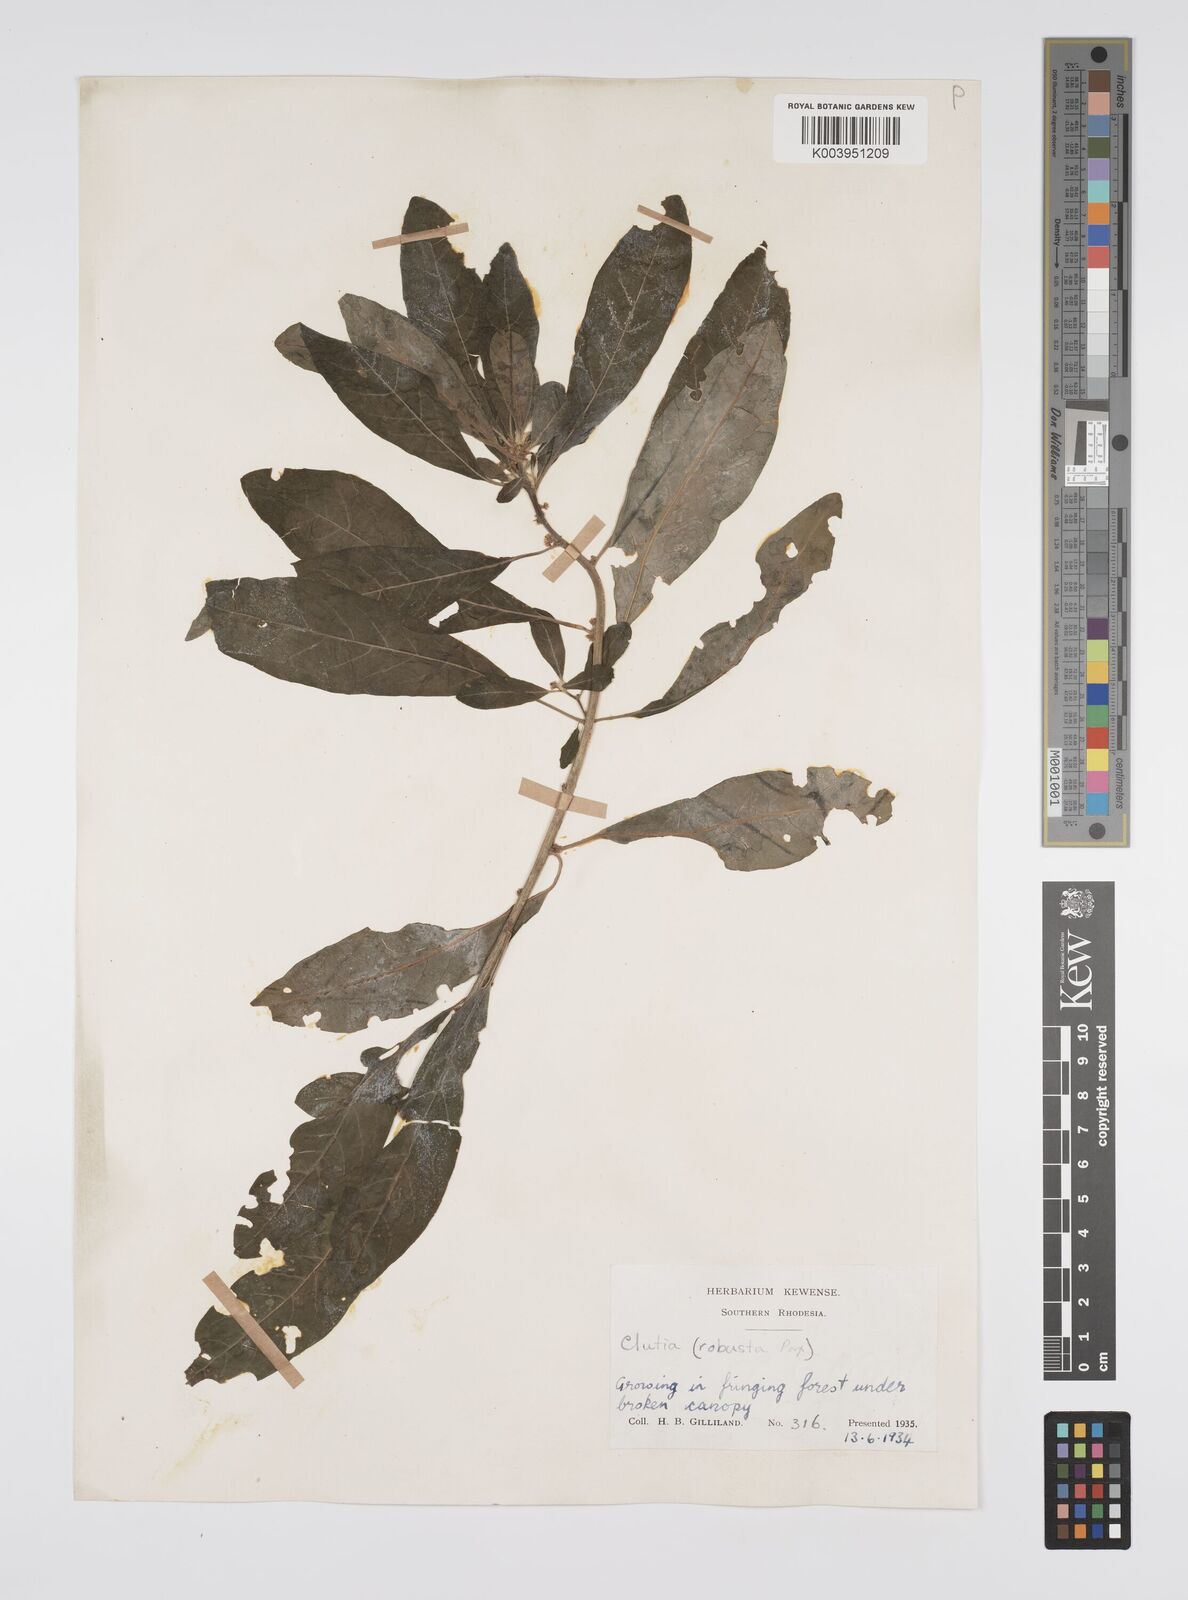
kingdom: Plantae
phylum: Tracheophyta
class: Magnoliopsida
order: Malpighiales
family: Peraceae
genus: Clutia
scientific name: Clutia kilimandscharica
